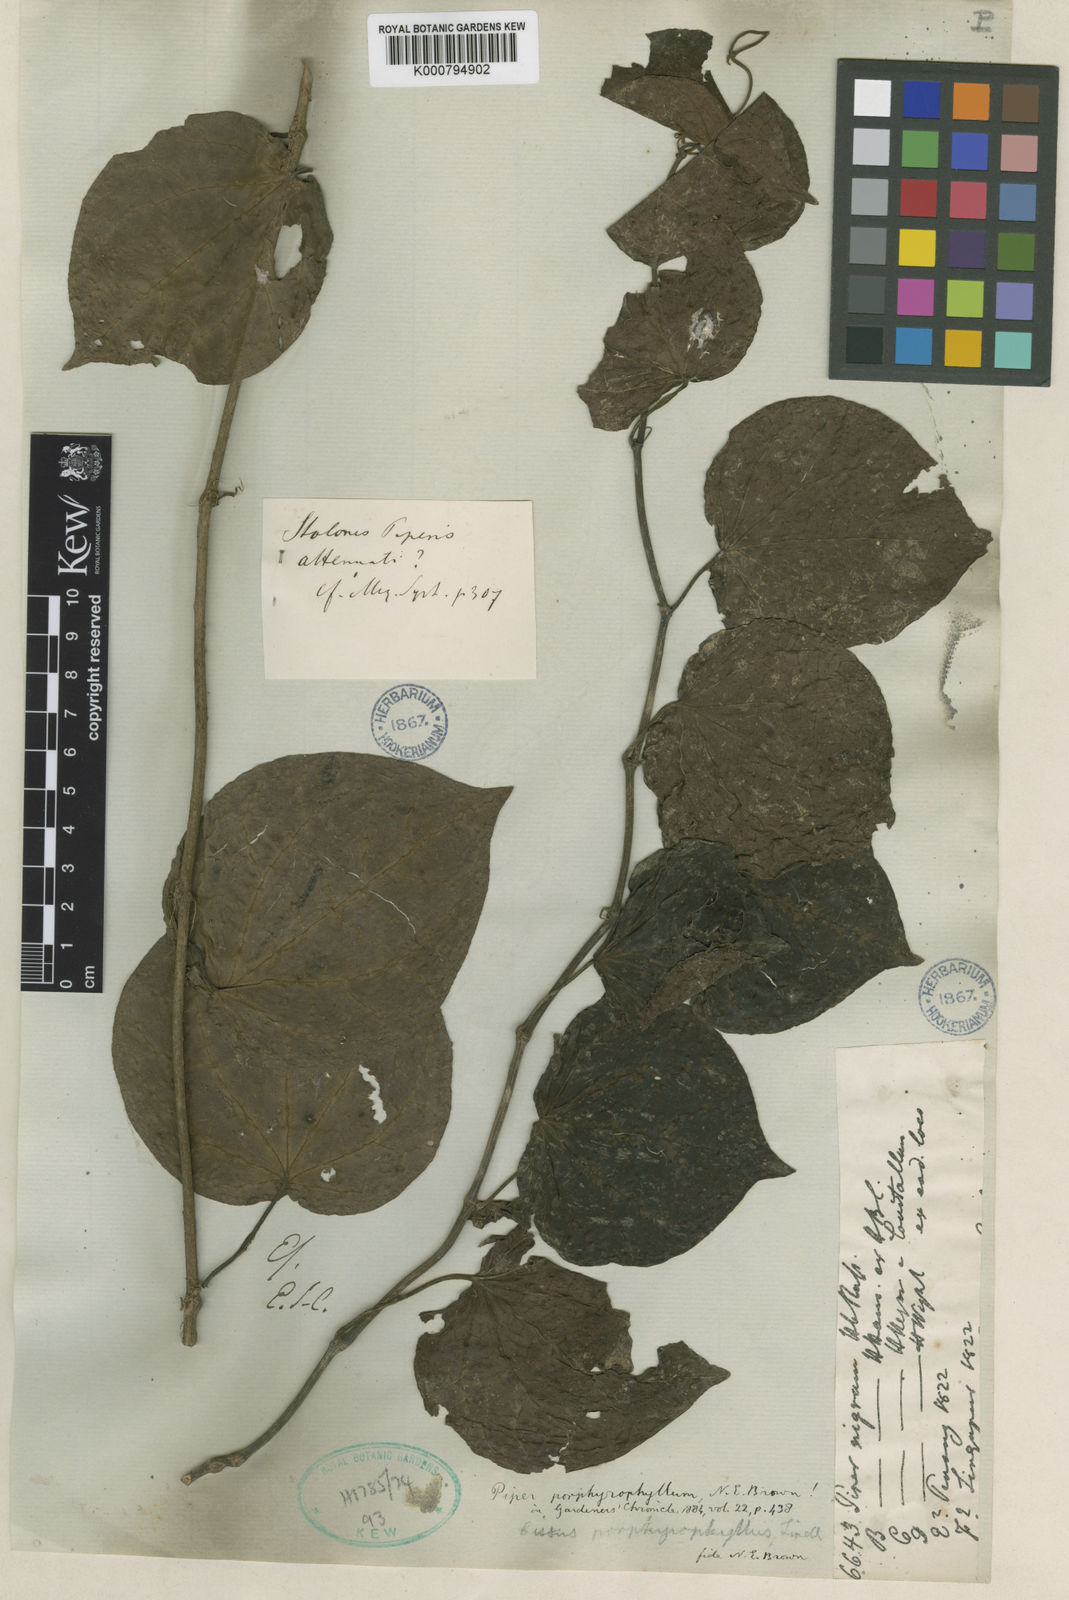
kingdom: Plantae
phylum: Tracheophyta
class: Magnoliopsida
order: Piperales
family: Piperaceae
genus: Piper
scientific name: Piper porphyrophyllum
